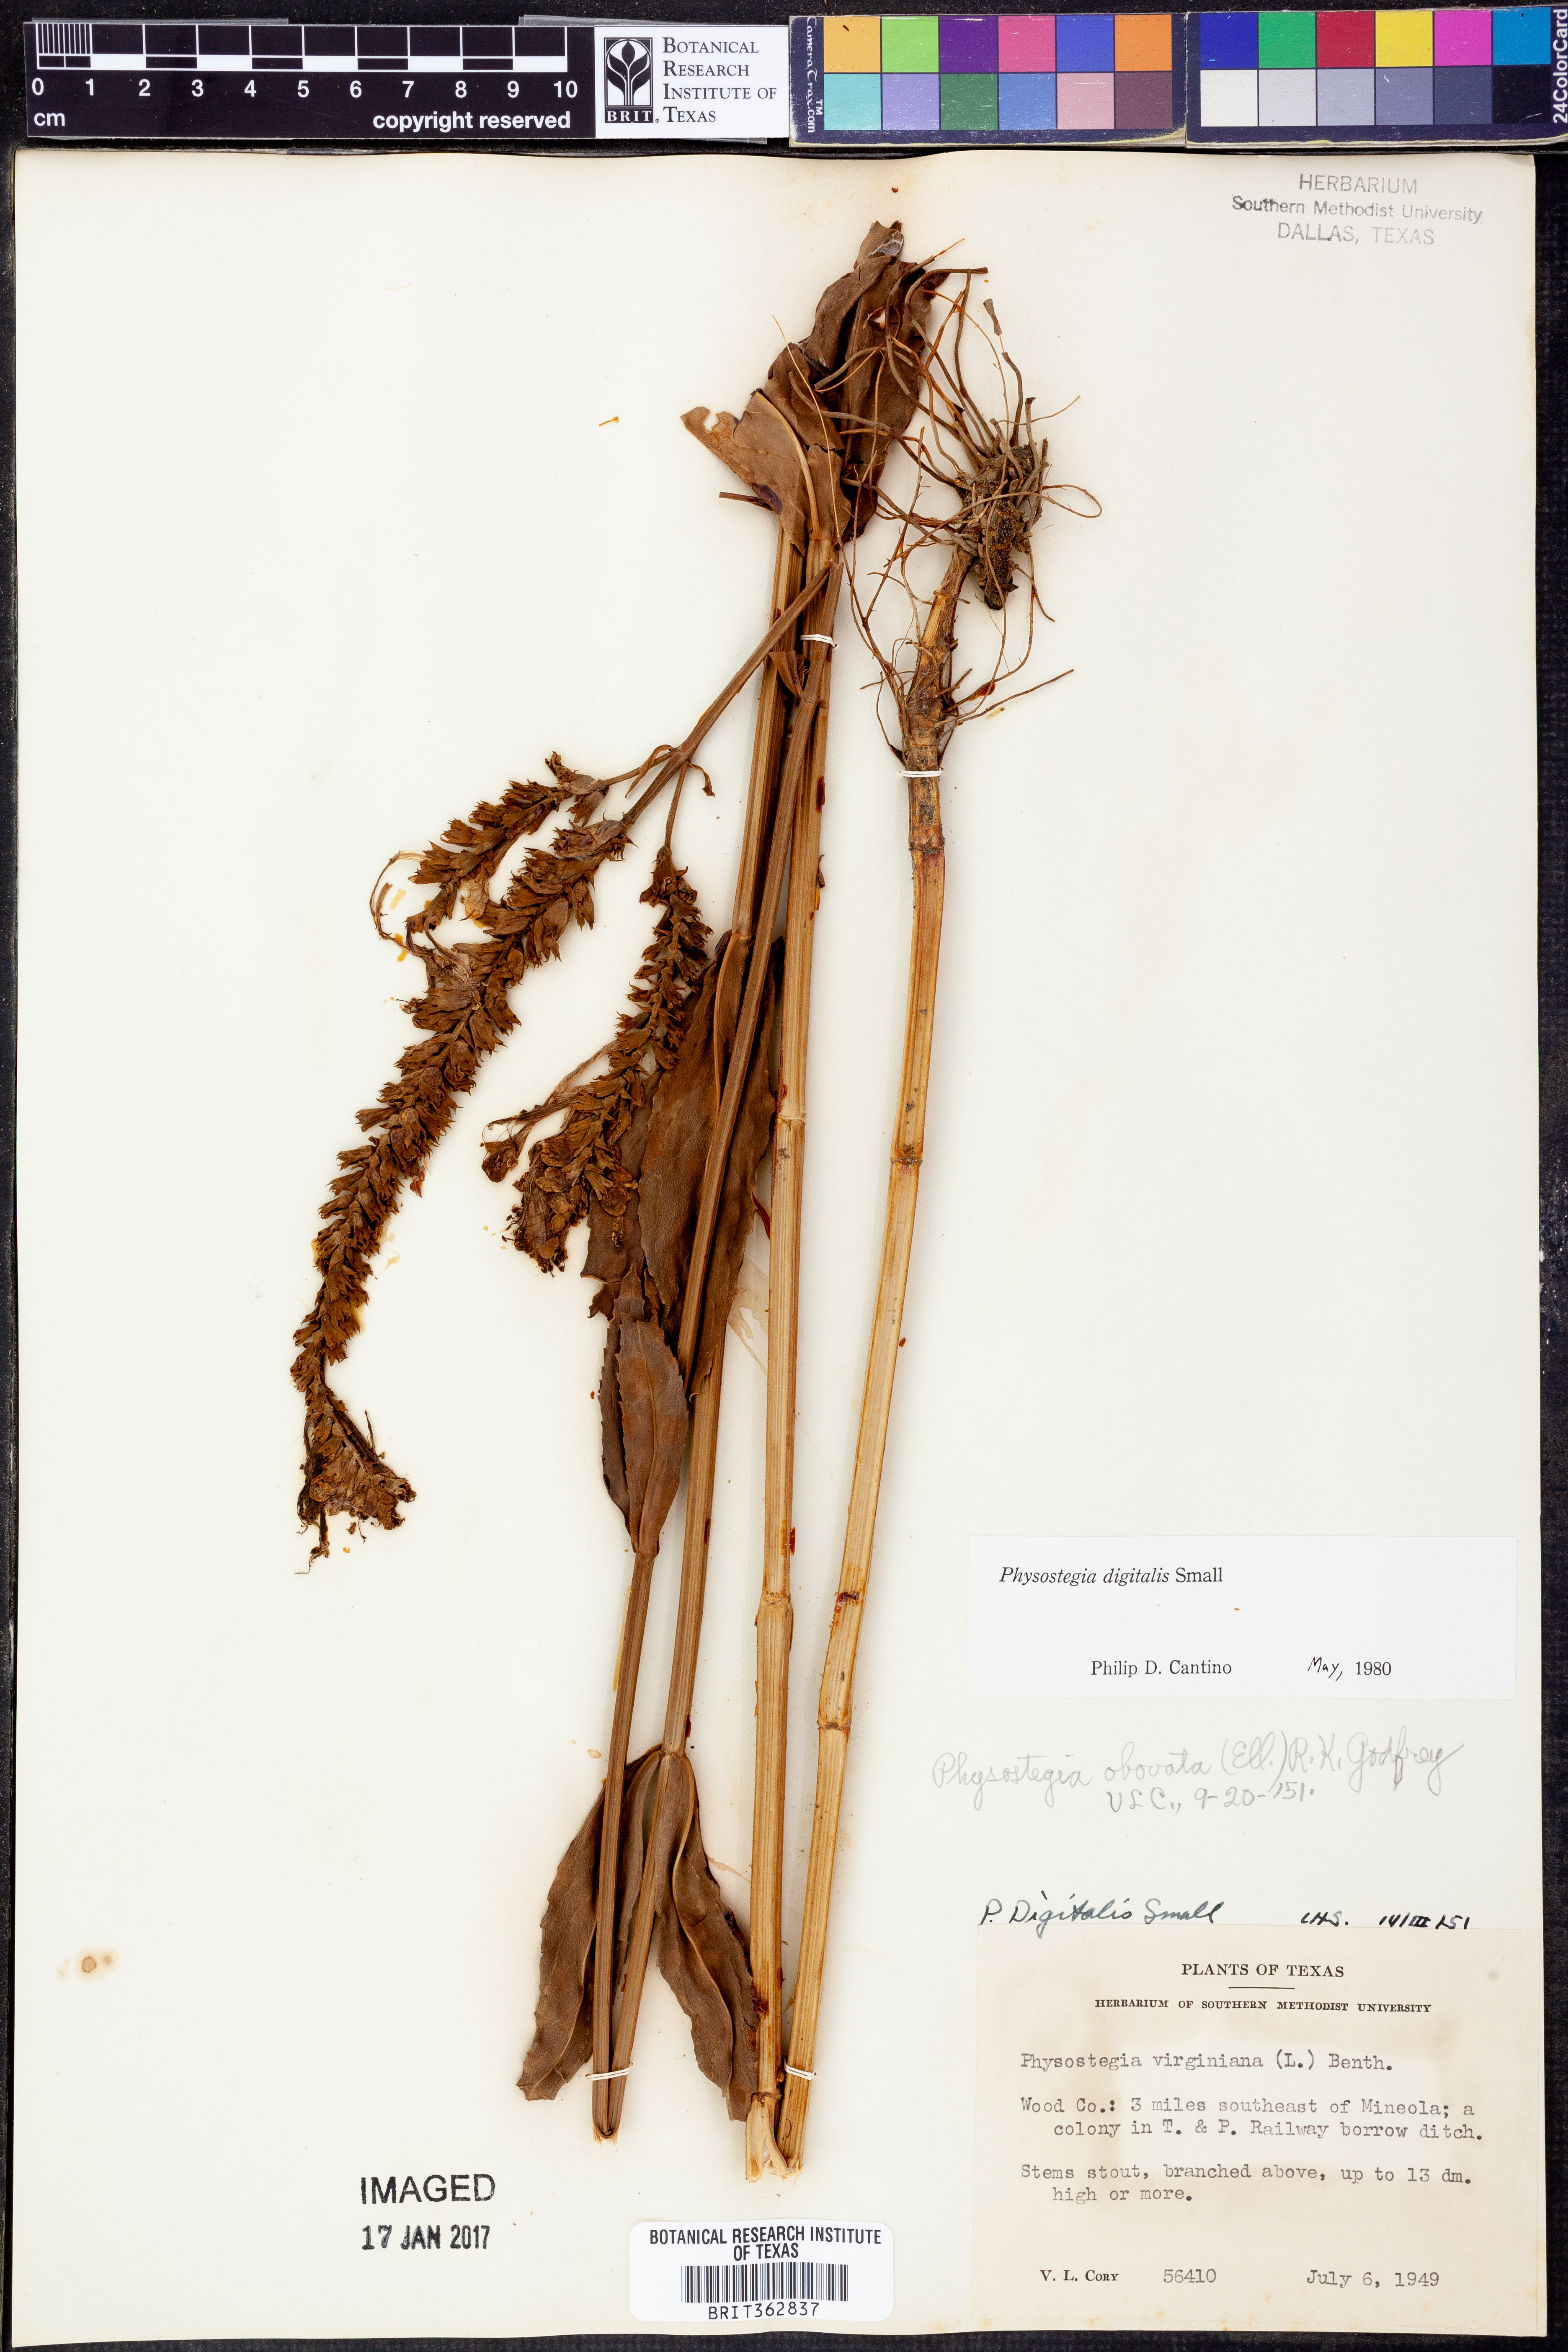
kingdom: Plantae
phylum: Tracheophyta
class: Magnoliopsida
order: Lamiales
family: Lamiaceae
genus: Physostegia
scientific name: Physostegia digitalis
